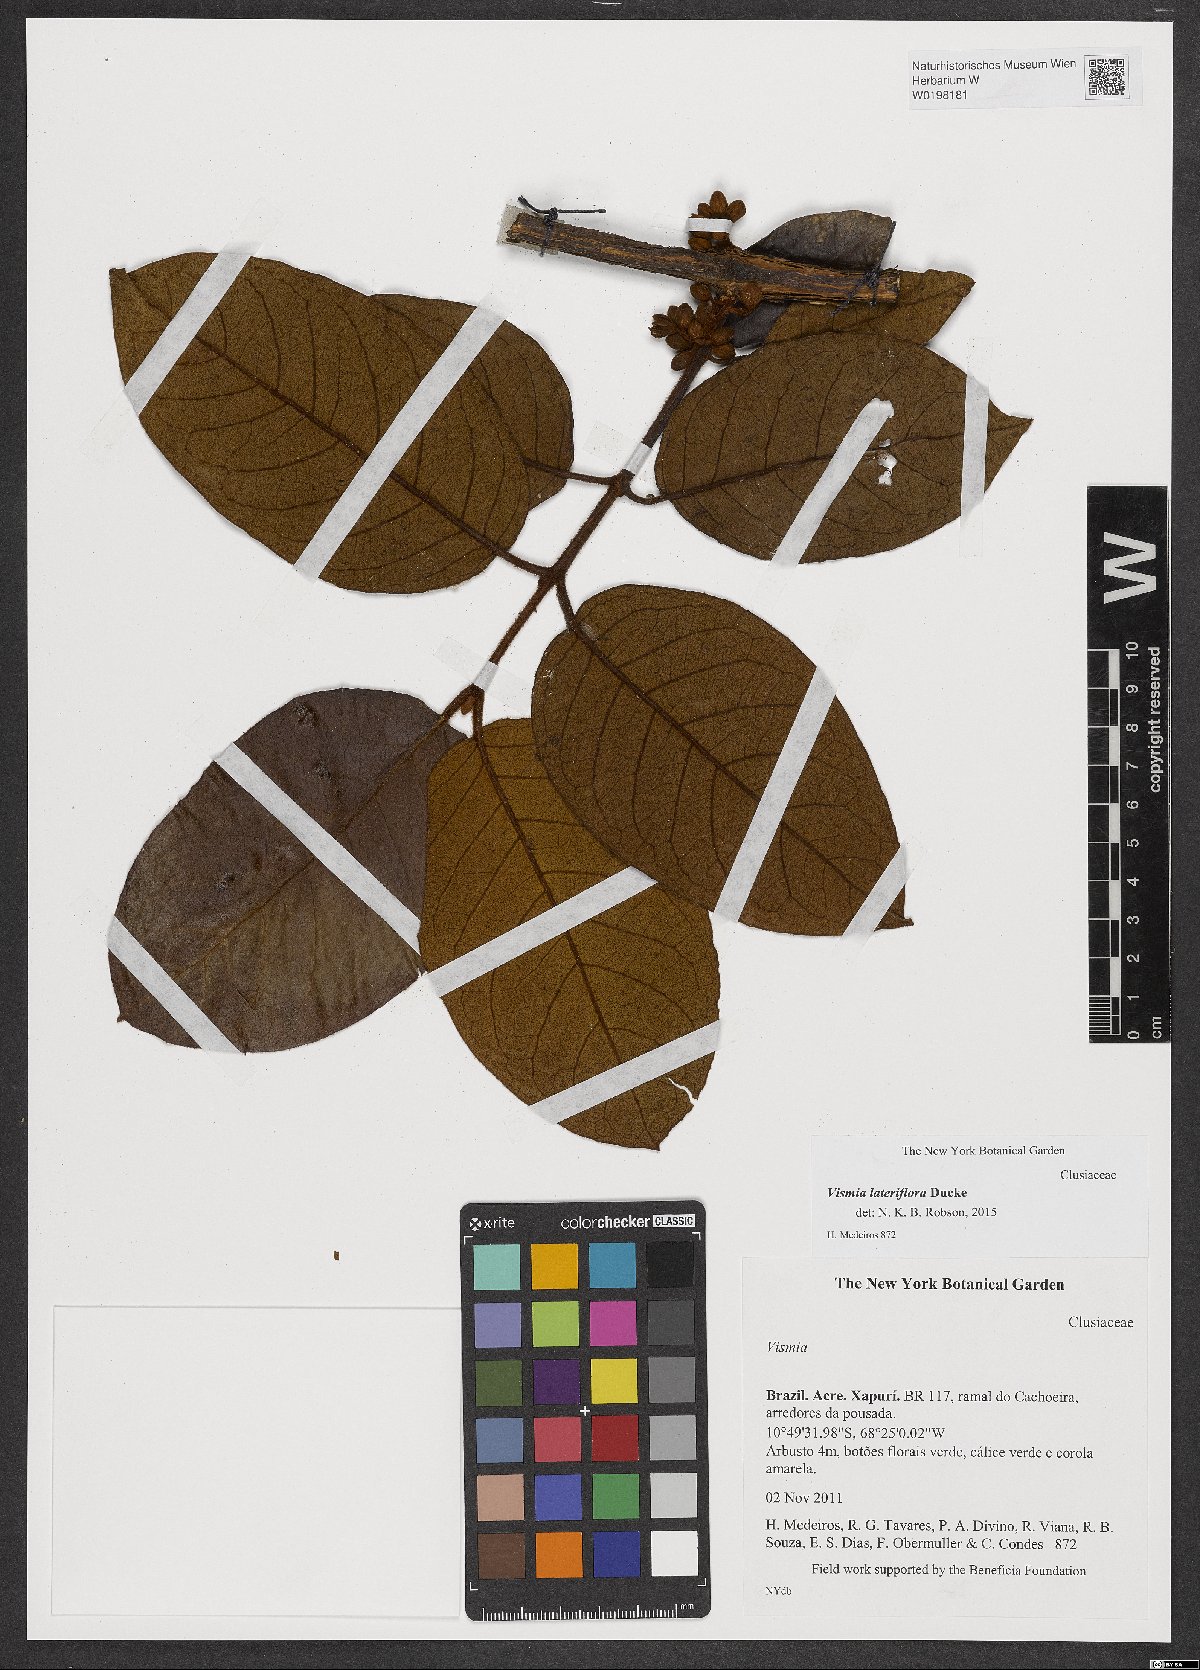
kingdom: Plantae
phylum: Tracheophyta
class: Magnoliopsida
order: Malpighiales
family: Hypericaceae
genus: Vismia
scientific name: Vismia lateriflora
